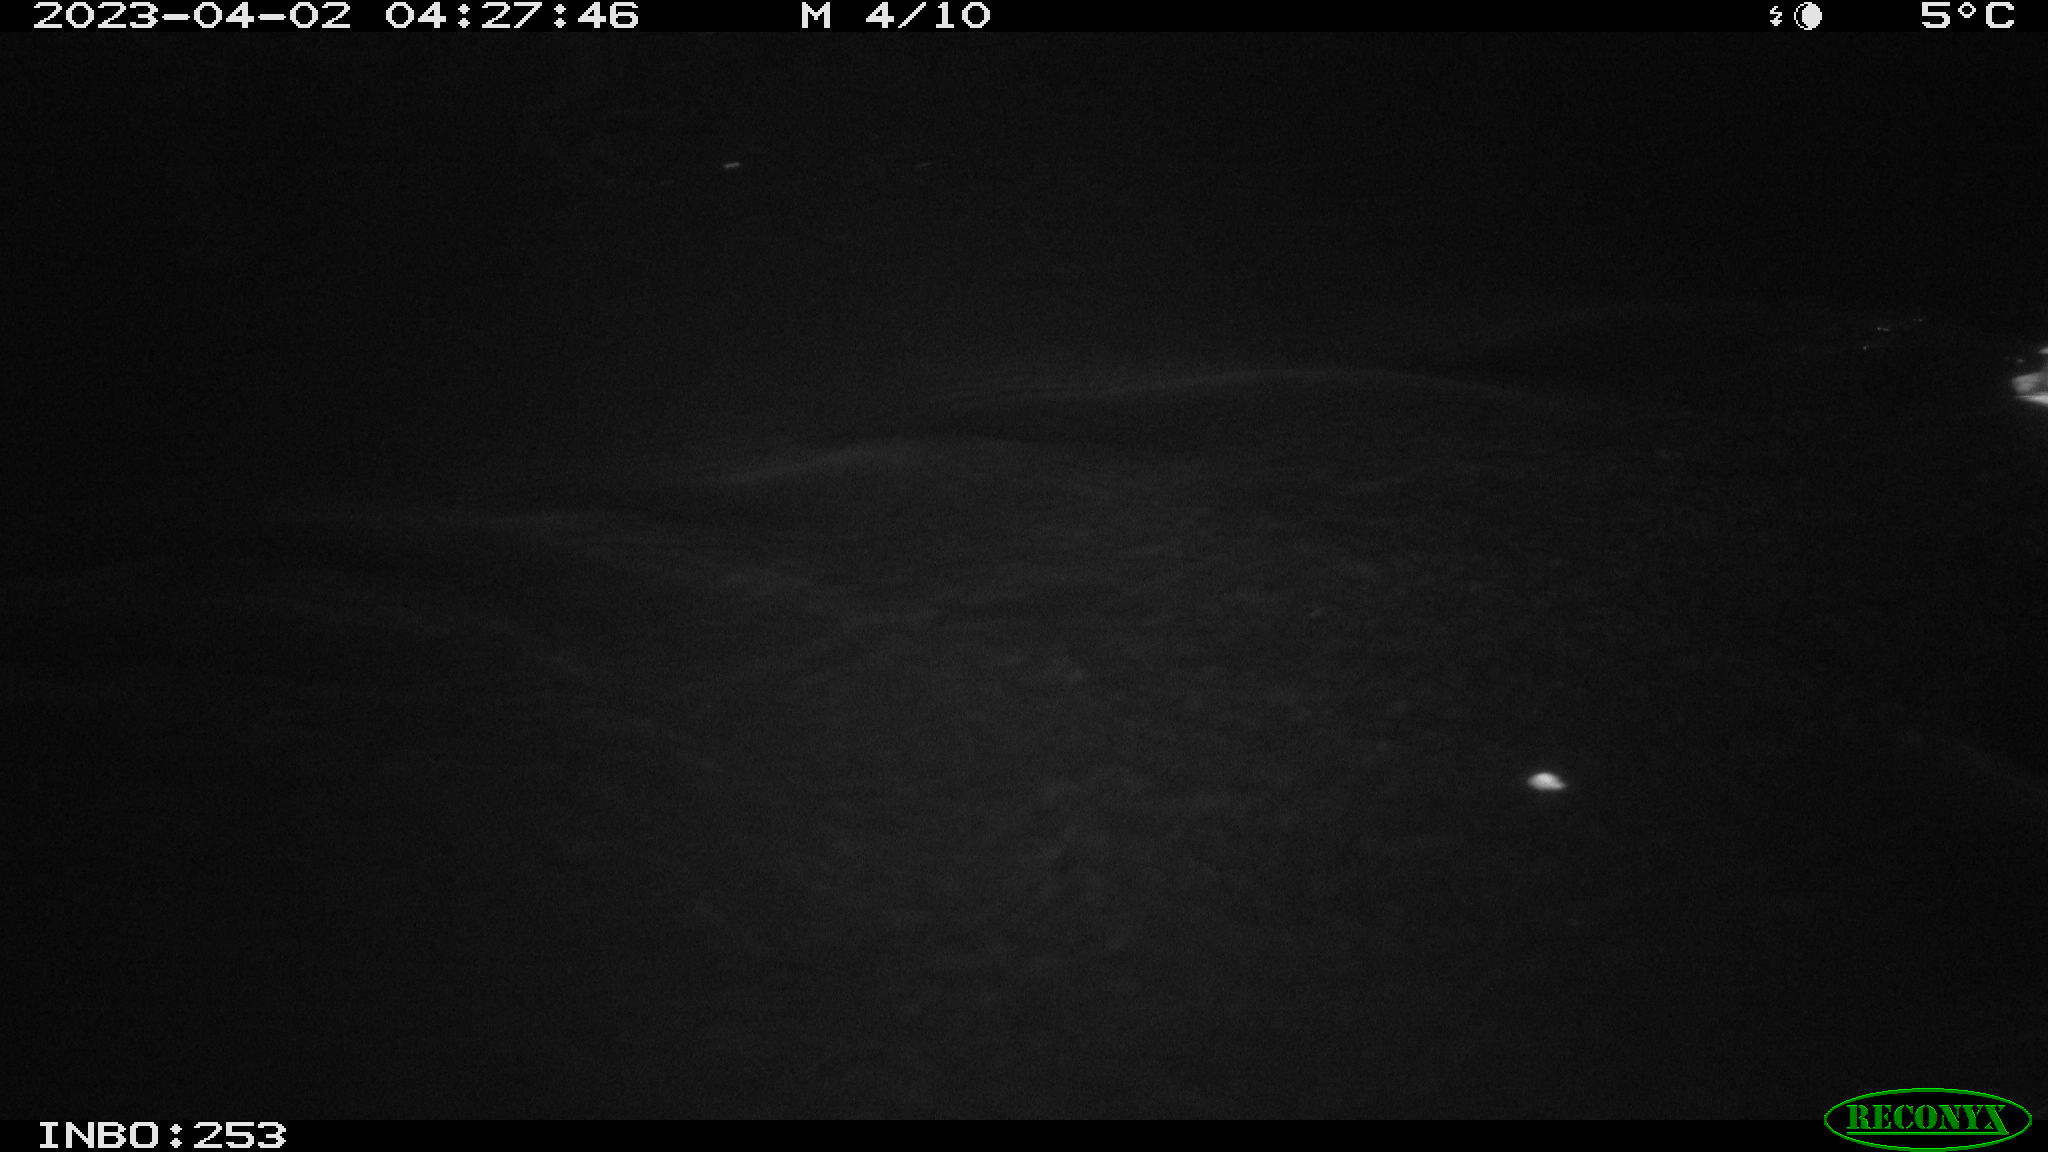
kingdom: Animalia
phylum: Chordata
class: Aves
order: Anseriformes
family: Anatidae
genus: Anas
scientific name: Anas
